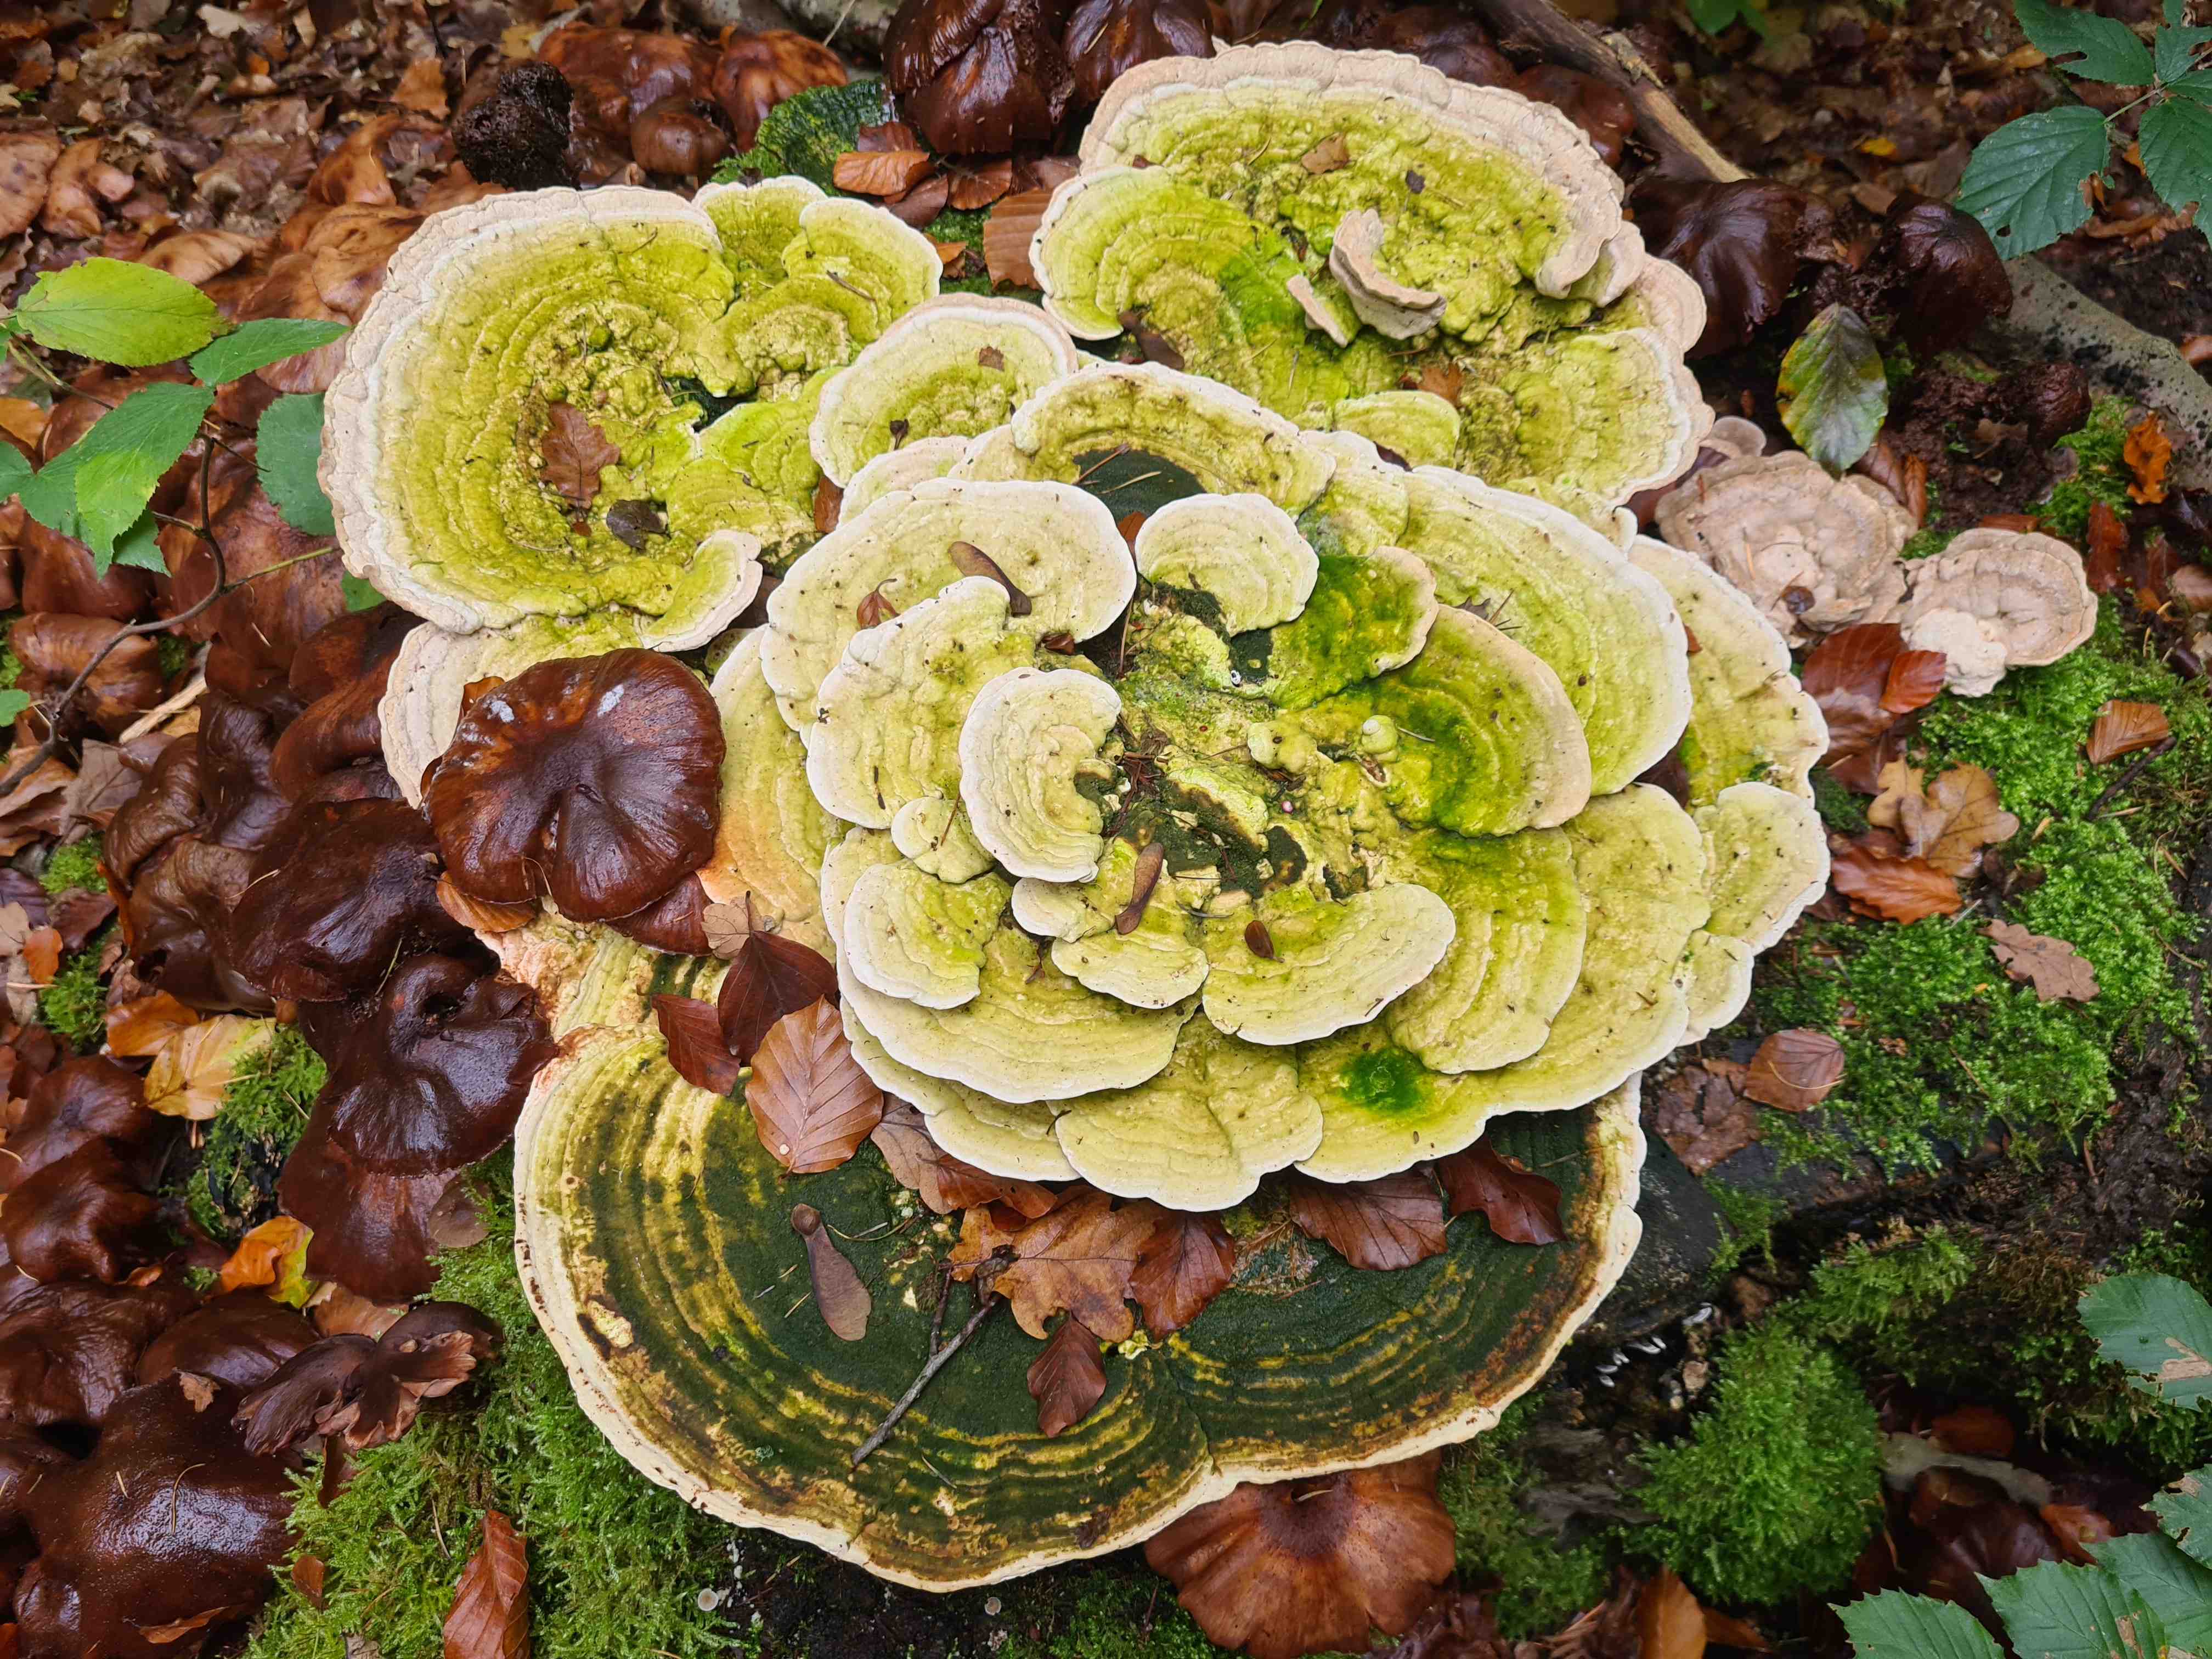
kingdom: Fungi
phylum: Basidiomycota
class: Agaricomycetes
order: Polyporales
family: Polyporaceae
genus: Trametes
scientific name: Trametes gibbosa
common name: puklet læderporesvamp
